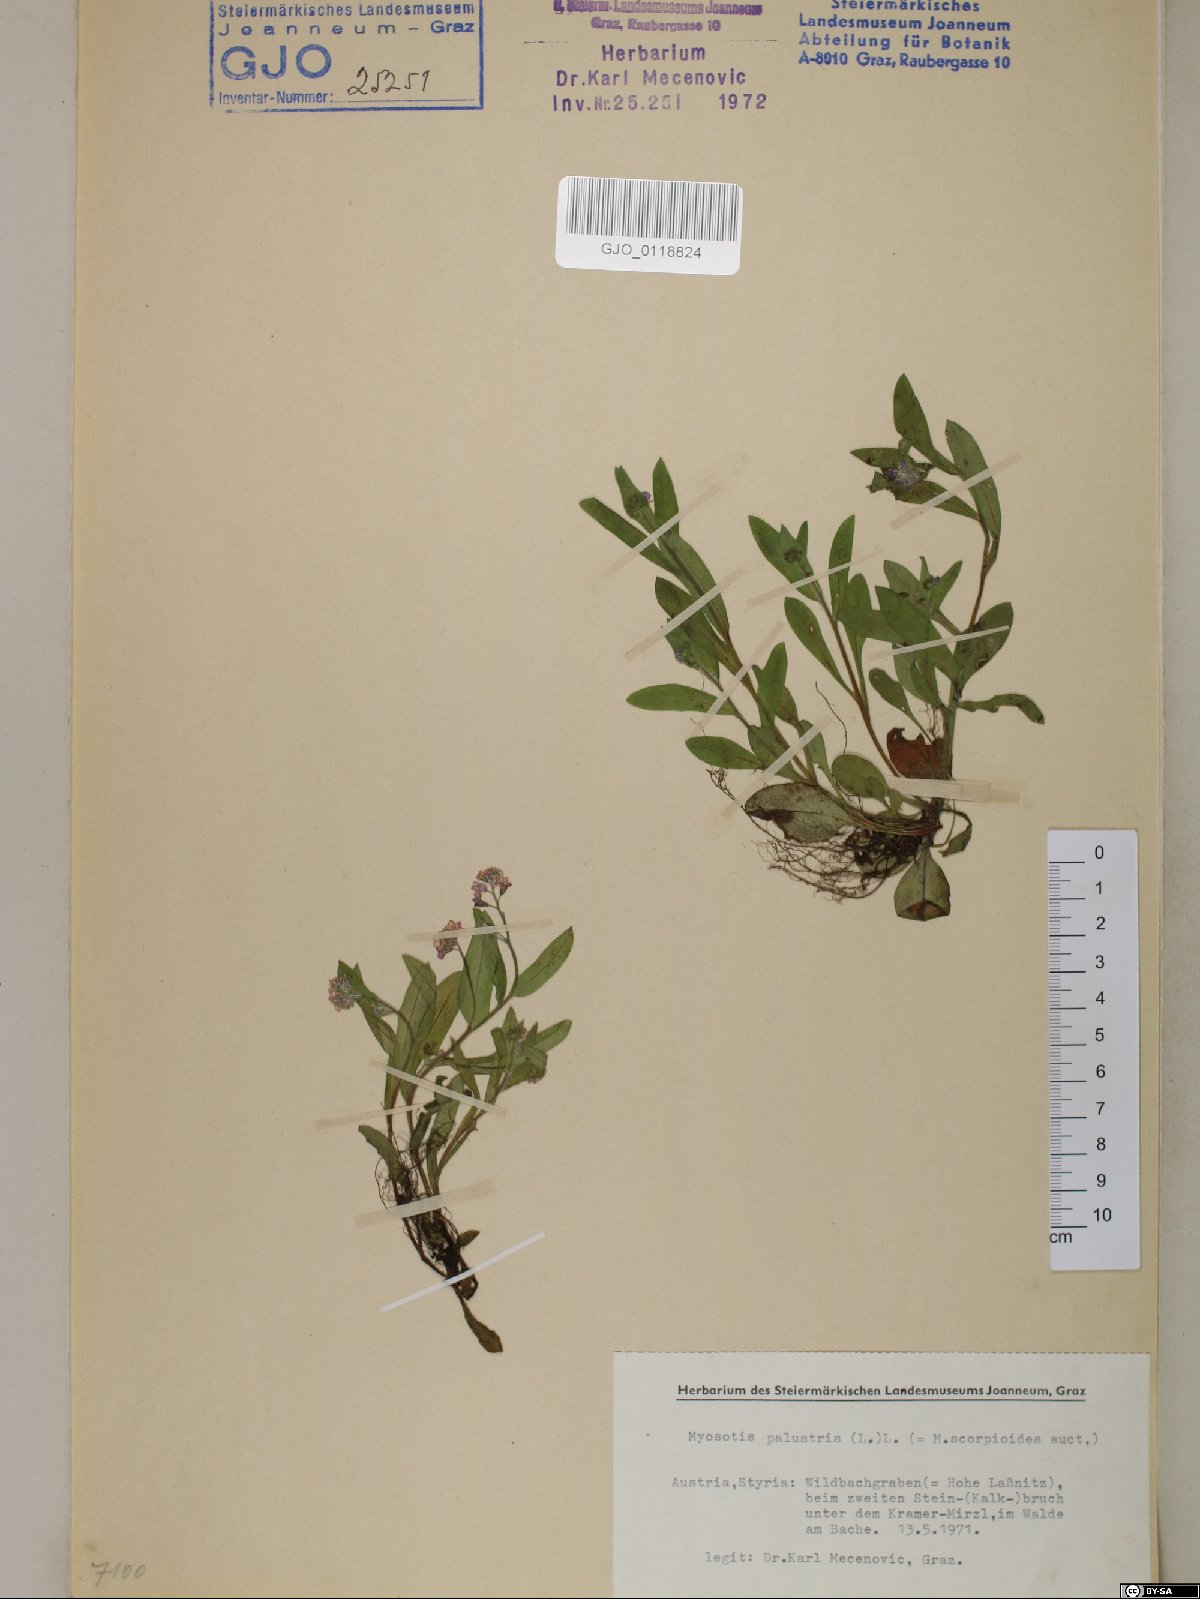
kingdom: Plantae
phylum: Tracheophyta
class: Magnoliopsida
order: Boraginales
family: Boraginaceae
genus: Myosotis
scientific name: Myosotis scorpioides
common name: Water forget-me-not
